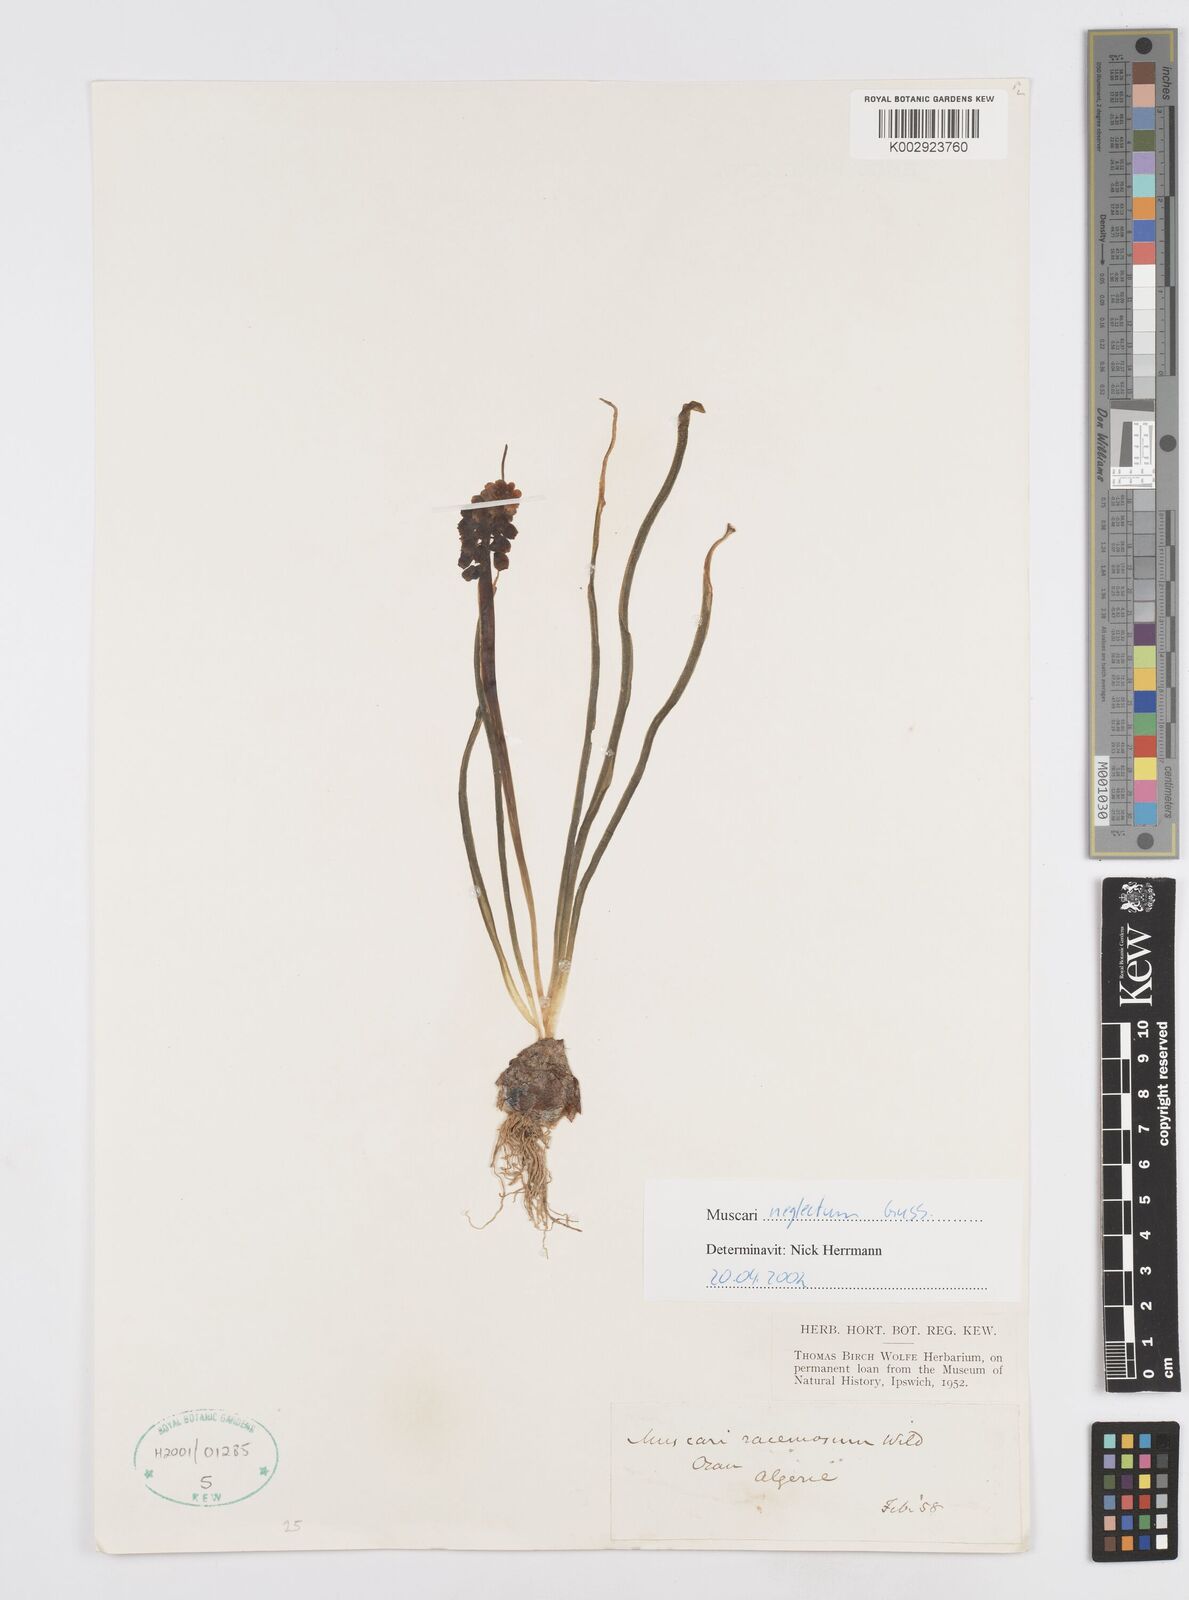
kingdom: Plantae
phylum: Tracheophyta
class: Liliopsida
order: Asparagales
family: Asparagaceae
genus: Muscari
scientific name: Muscari neglectum
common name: Grape-hyacinth
